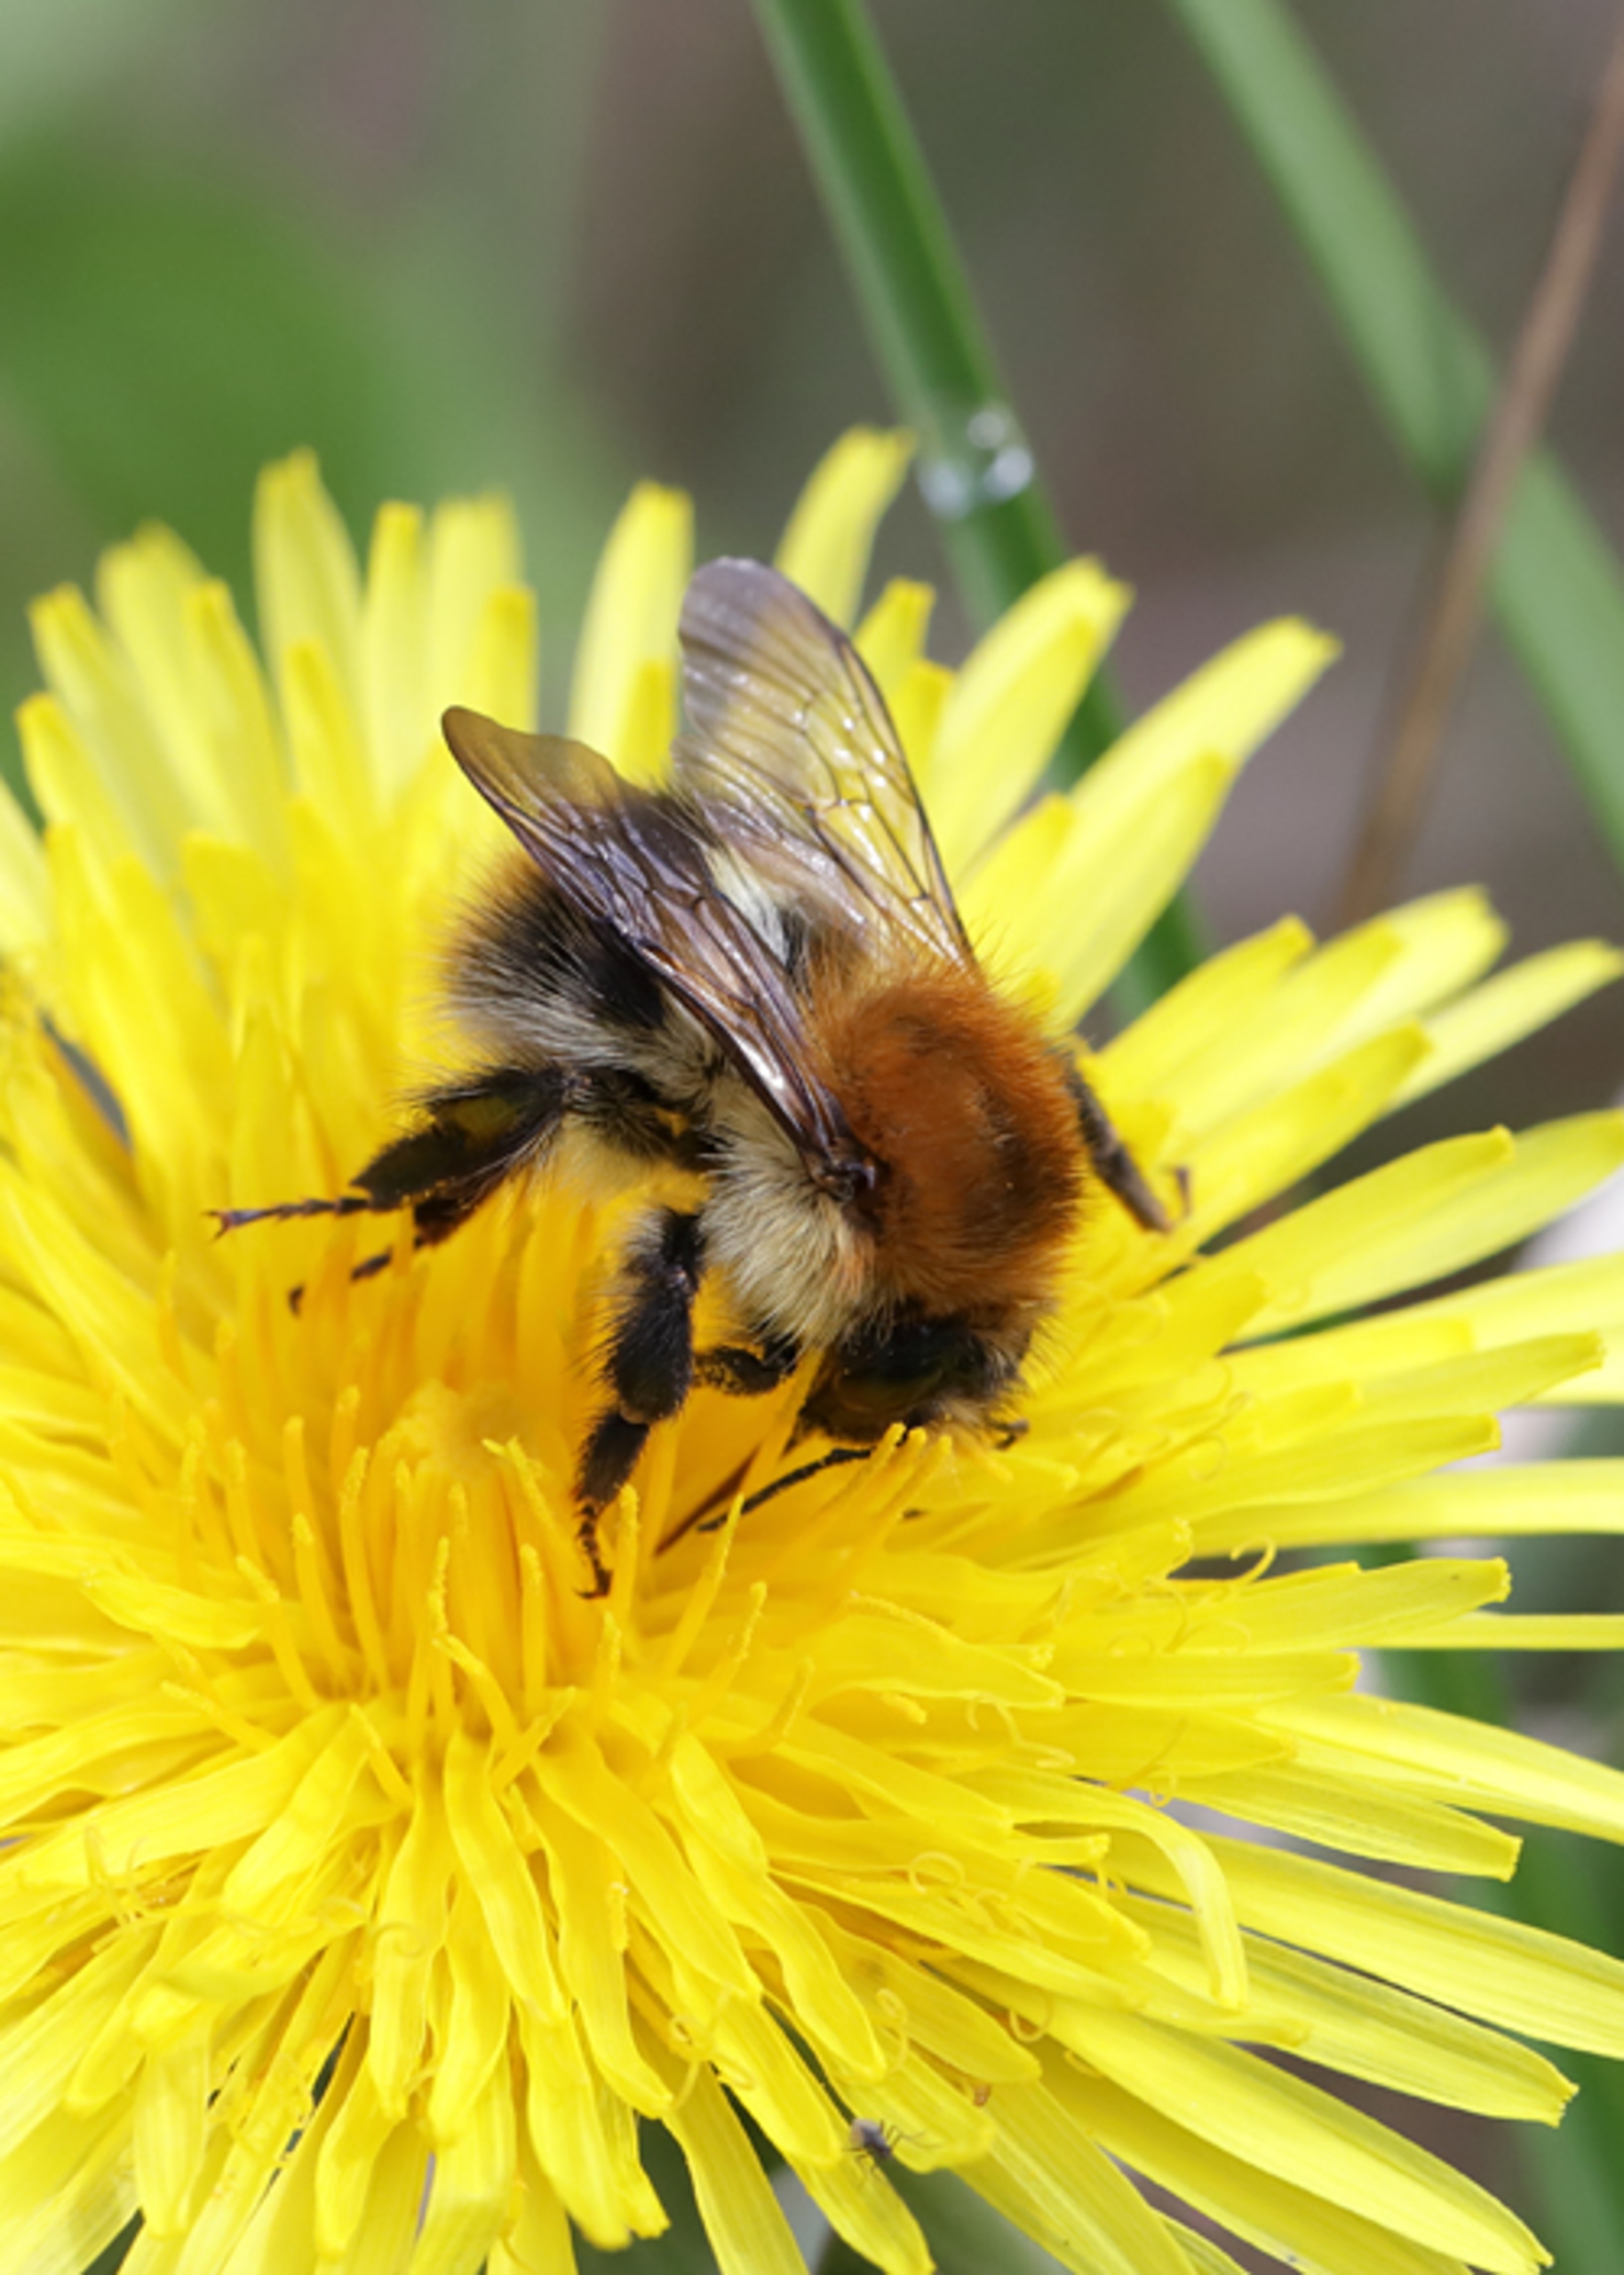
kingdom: Animalia
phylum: Arthropoda
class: Insecta
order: Hymenoptera
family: Apidae
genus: Bombus
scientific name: Bombus pascuorum
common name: Agerhumle
